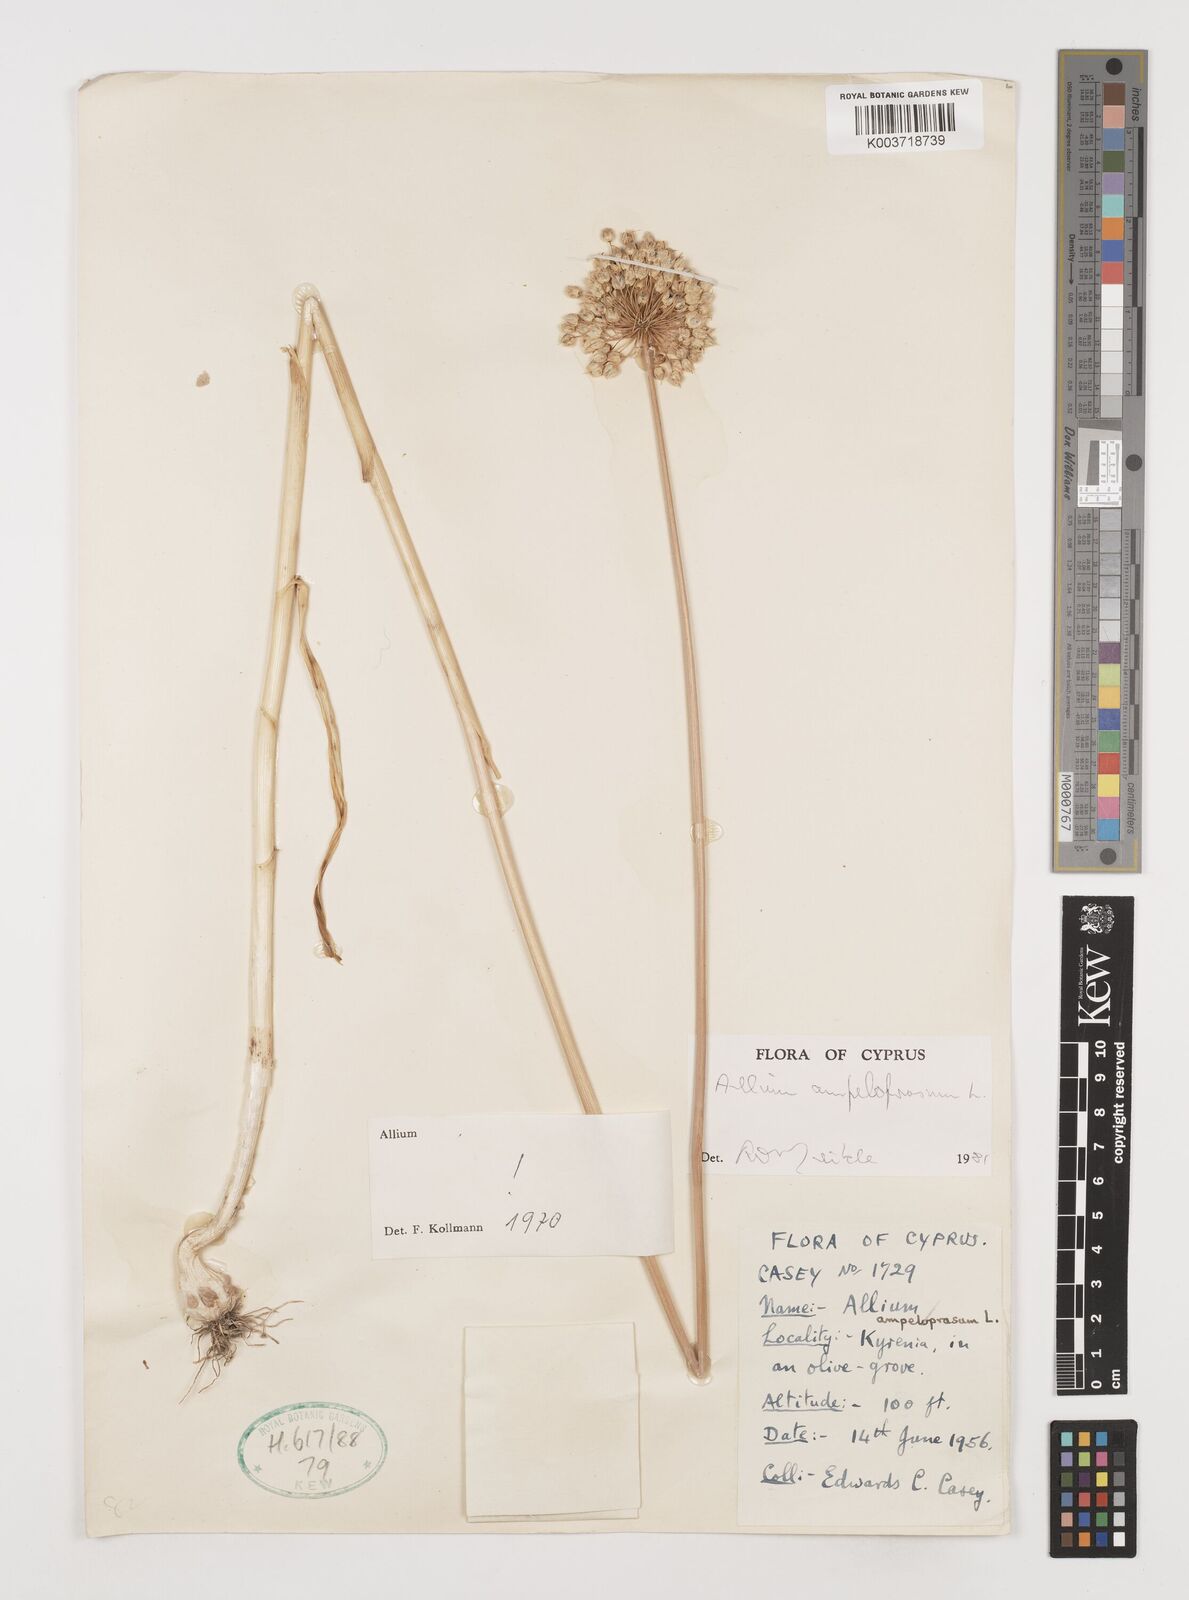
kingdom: Plantae
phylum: Tracheophyta
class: Liliopsida
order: Asparagales
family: Amaryllidaceae
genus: Allium
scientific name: Allium ampeloprasum
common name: Wild leek
